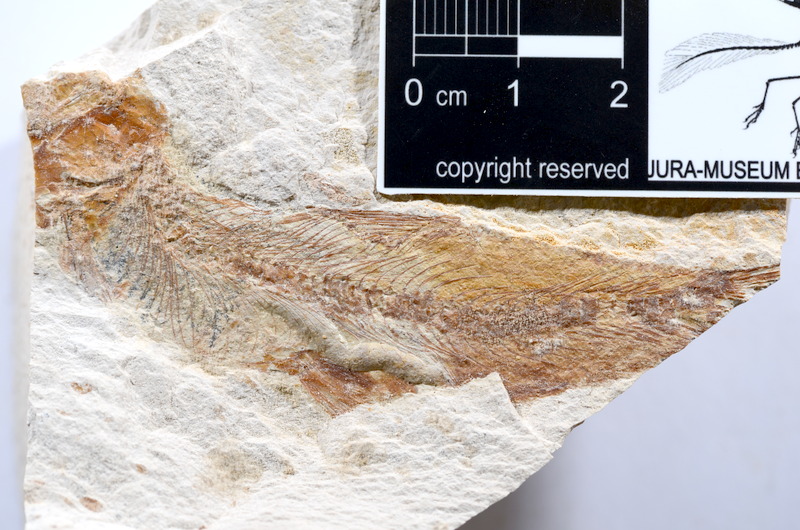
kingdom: Animalia
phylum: Chordata
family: Ascalaboidae
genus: Tharsis
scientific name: Tharsis dubius
